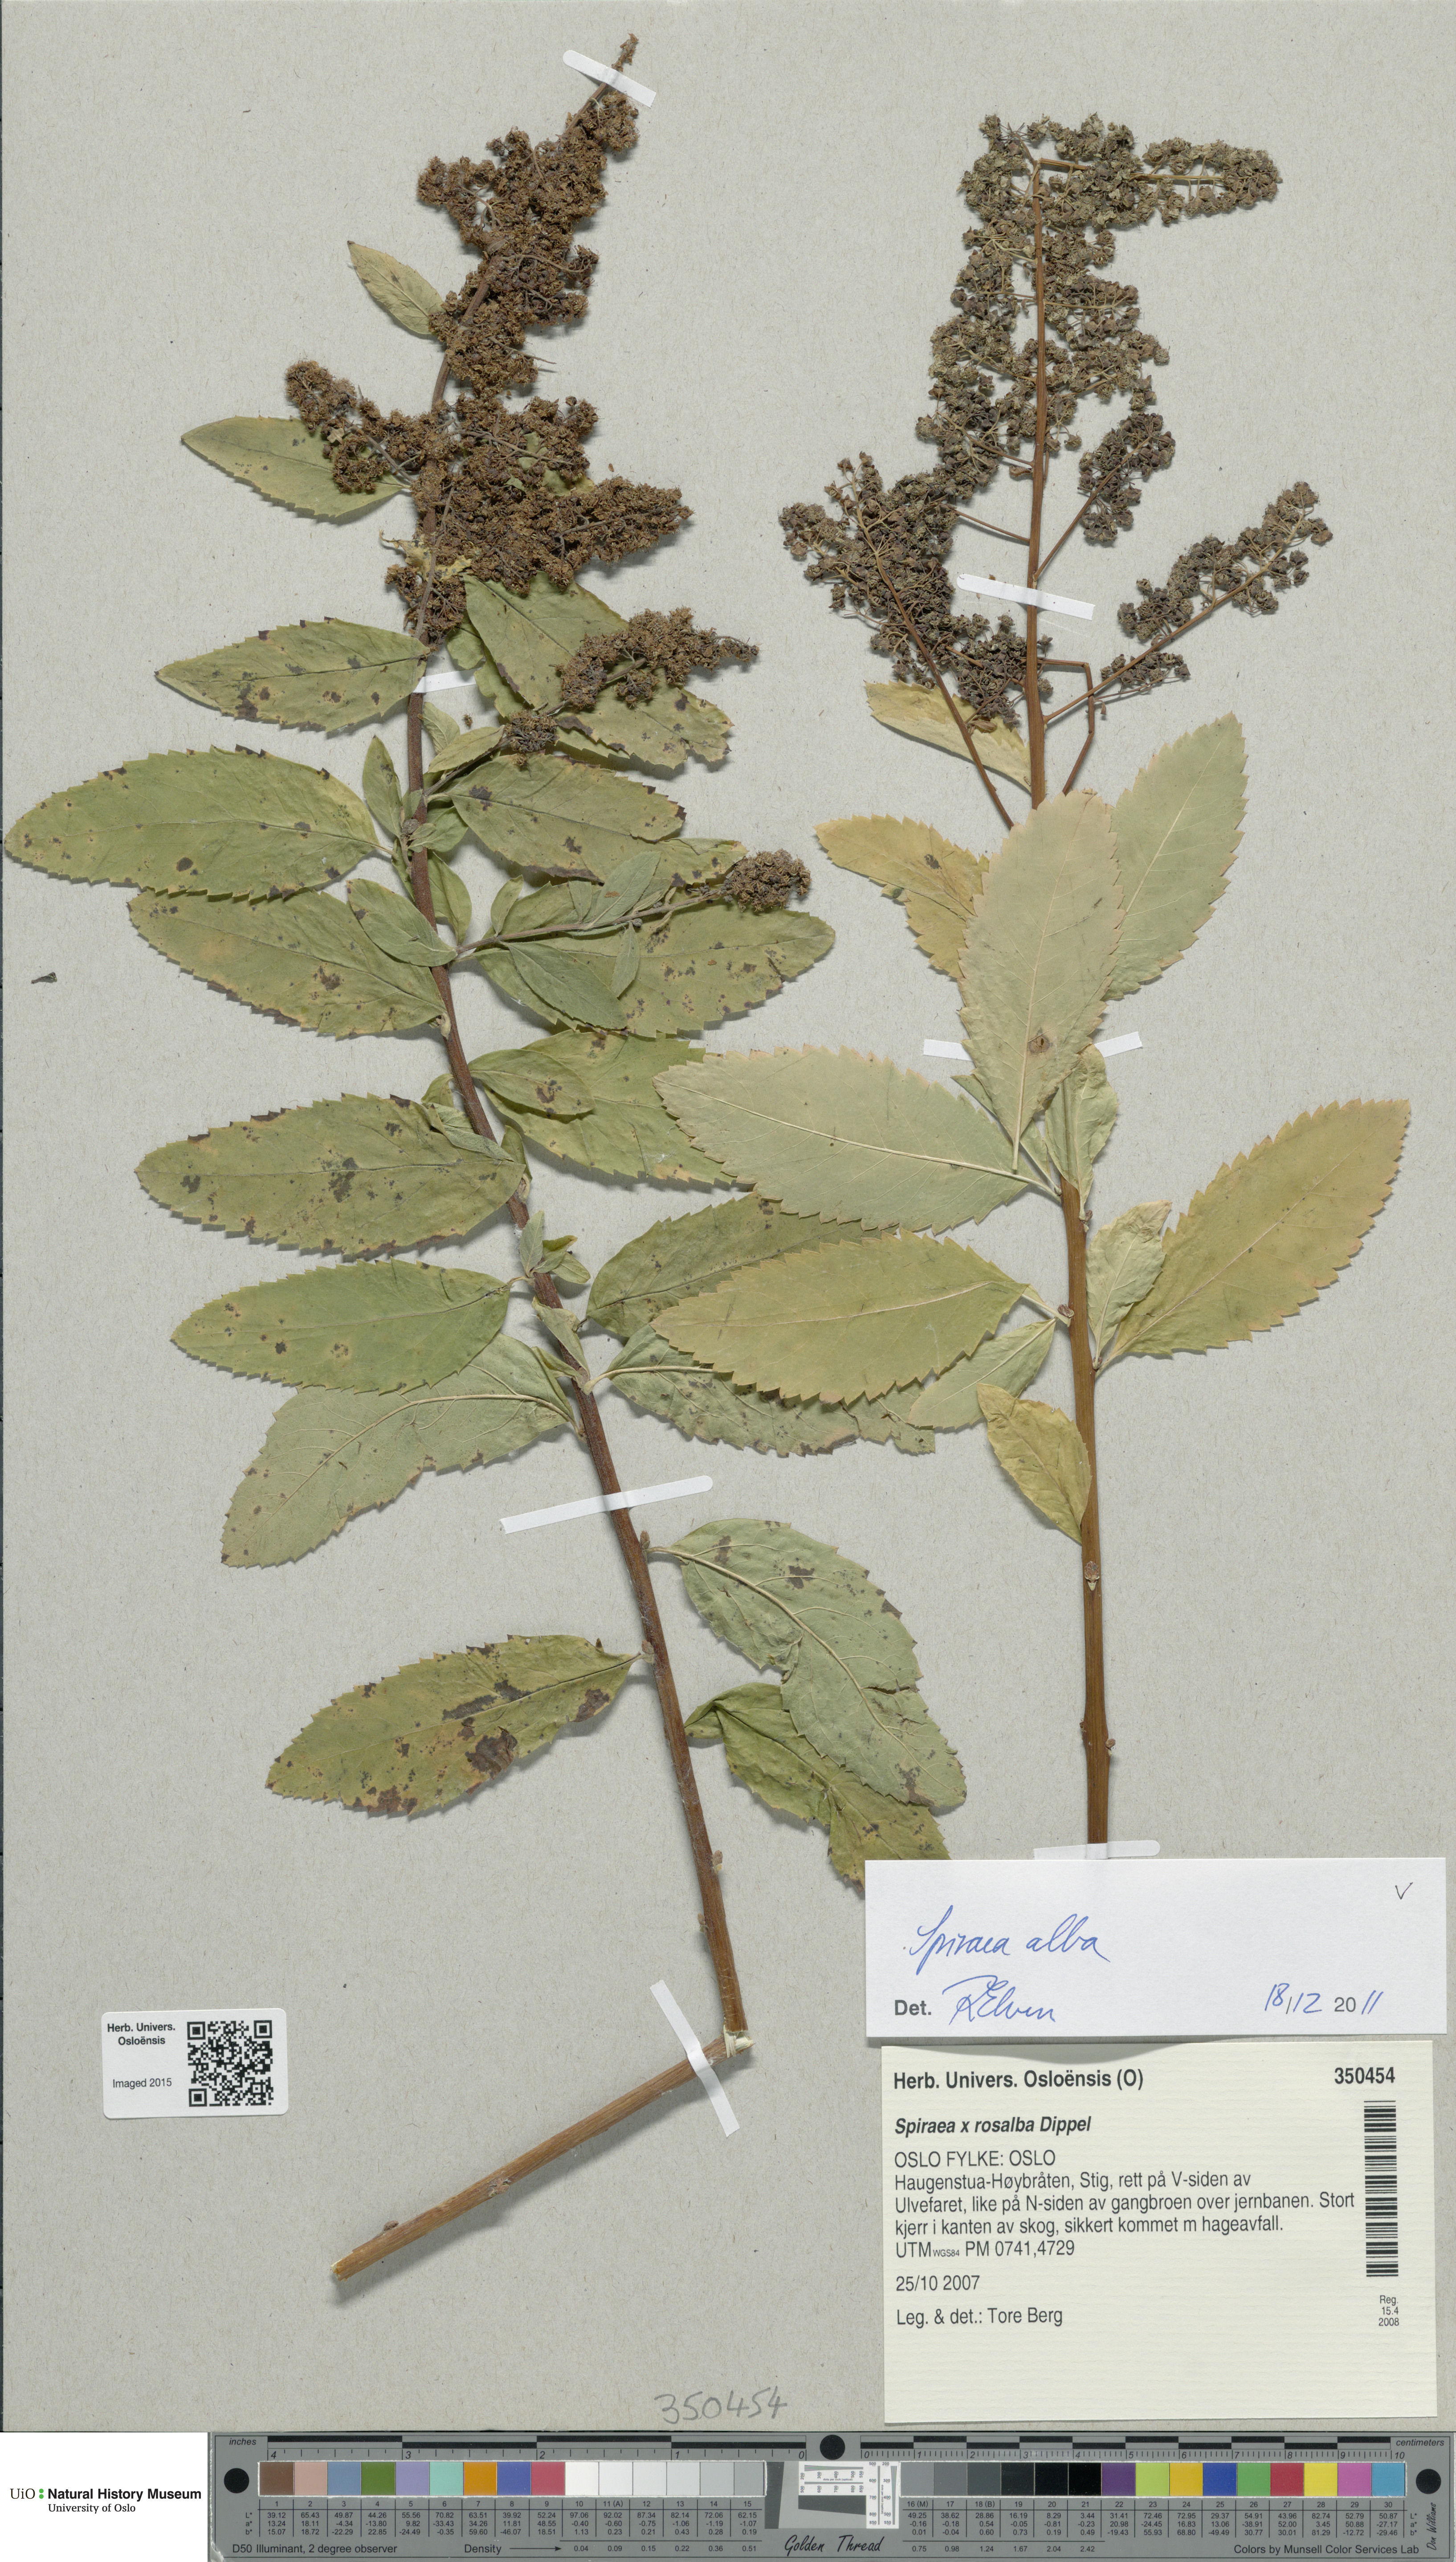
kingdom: Plantae
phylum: Tracheophyta
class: Magnoliopsida
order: Rosales
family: Rosaceae
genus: Spiraea
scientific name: Spiraea alba
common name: Pale bridewort
